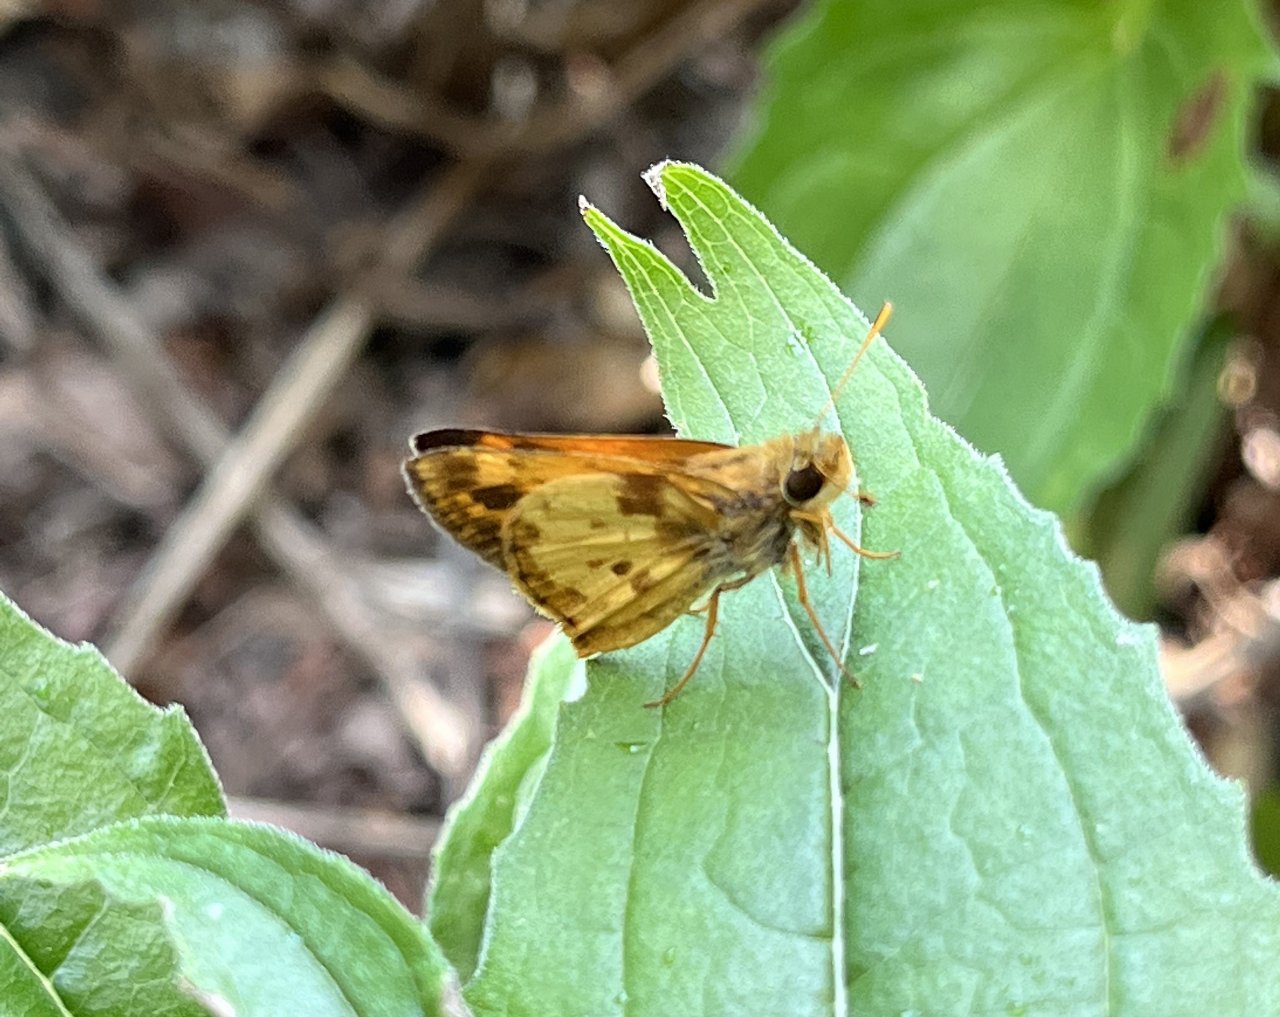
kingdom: Animalia
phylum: Arthropoda
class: Insecta
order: Lepidoptera
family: Hesperiidae
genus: Lon
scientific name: Lon zabulon
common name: Zabulon Skipper
